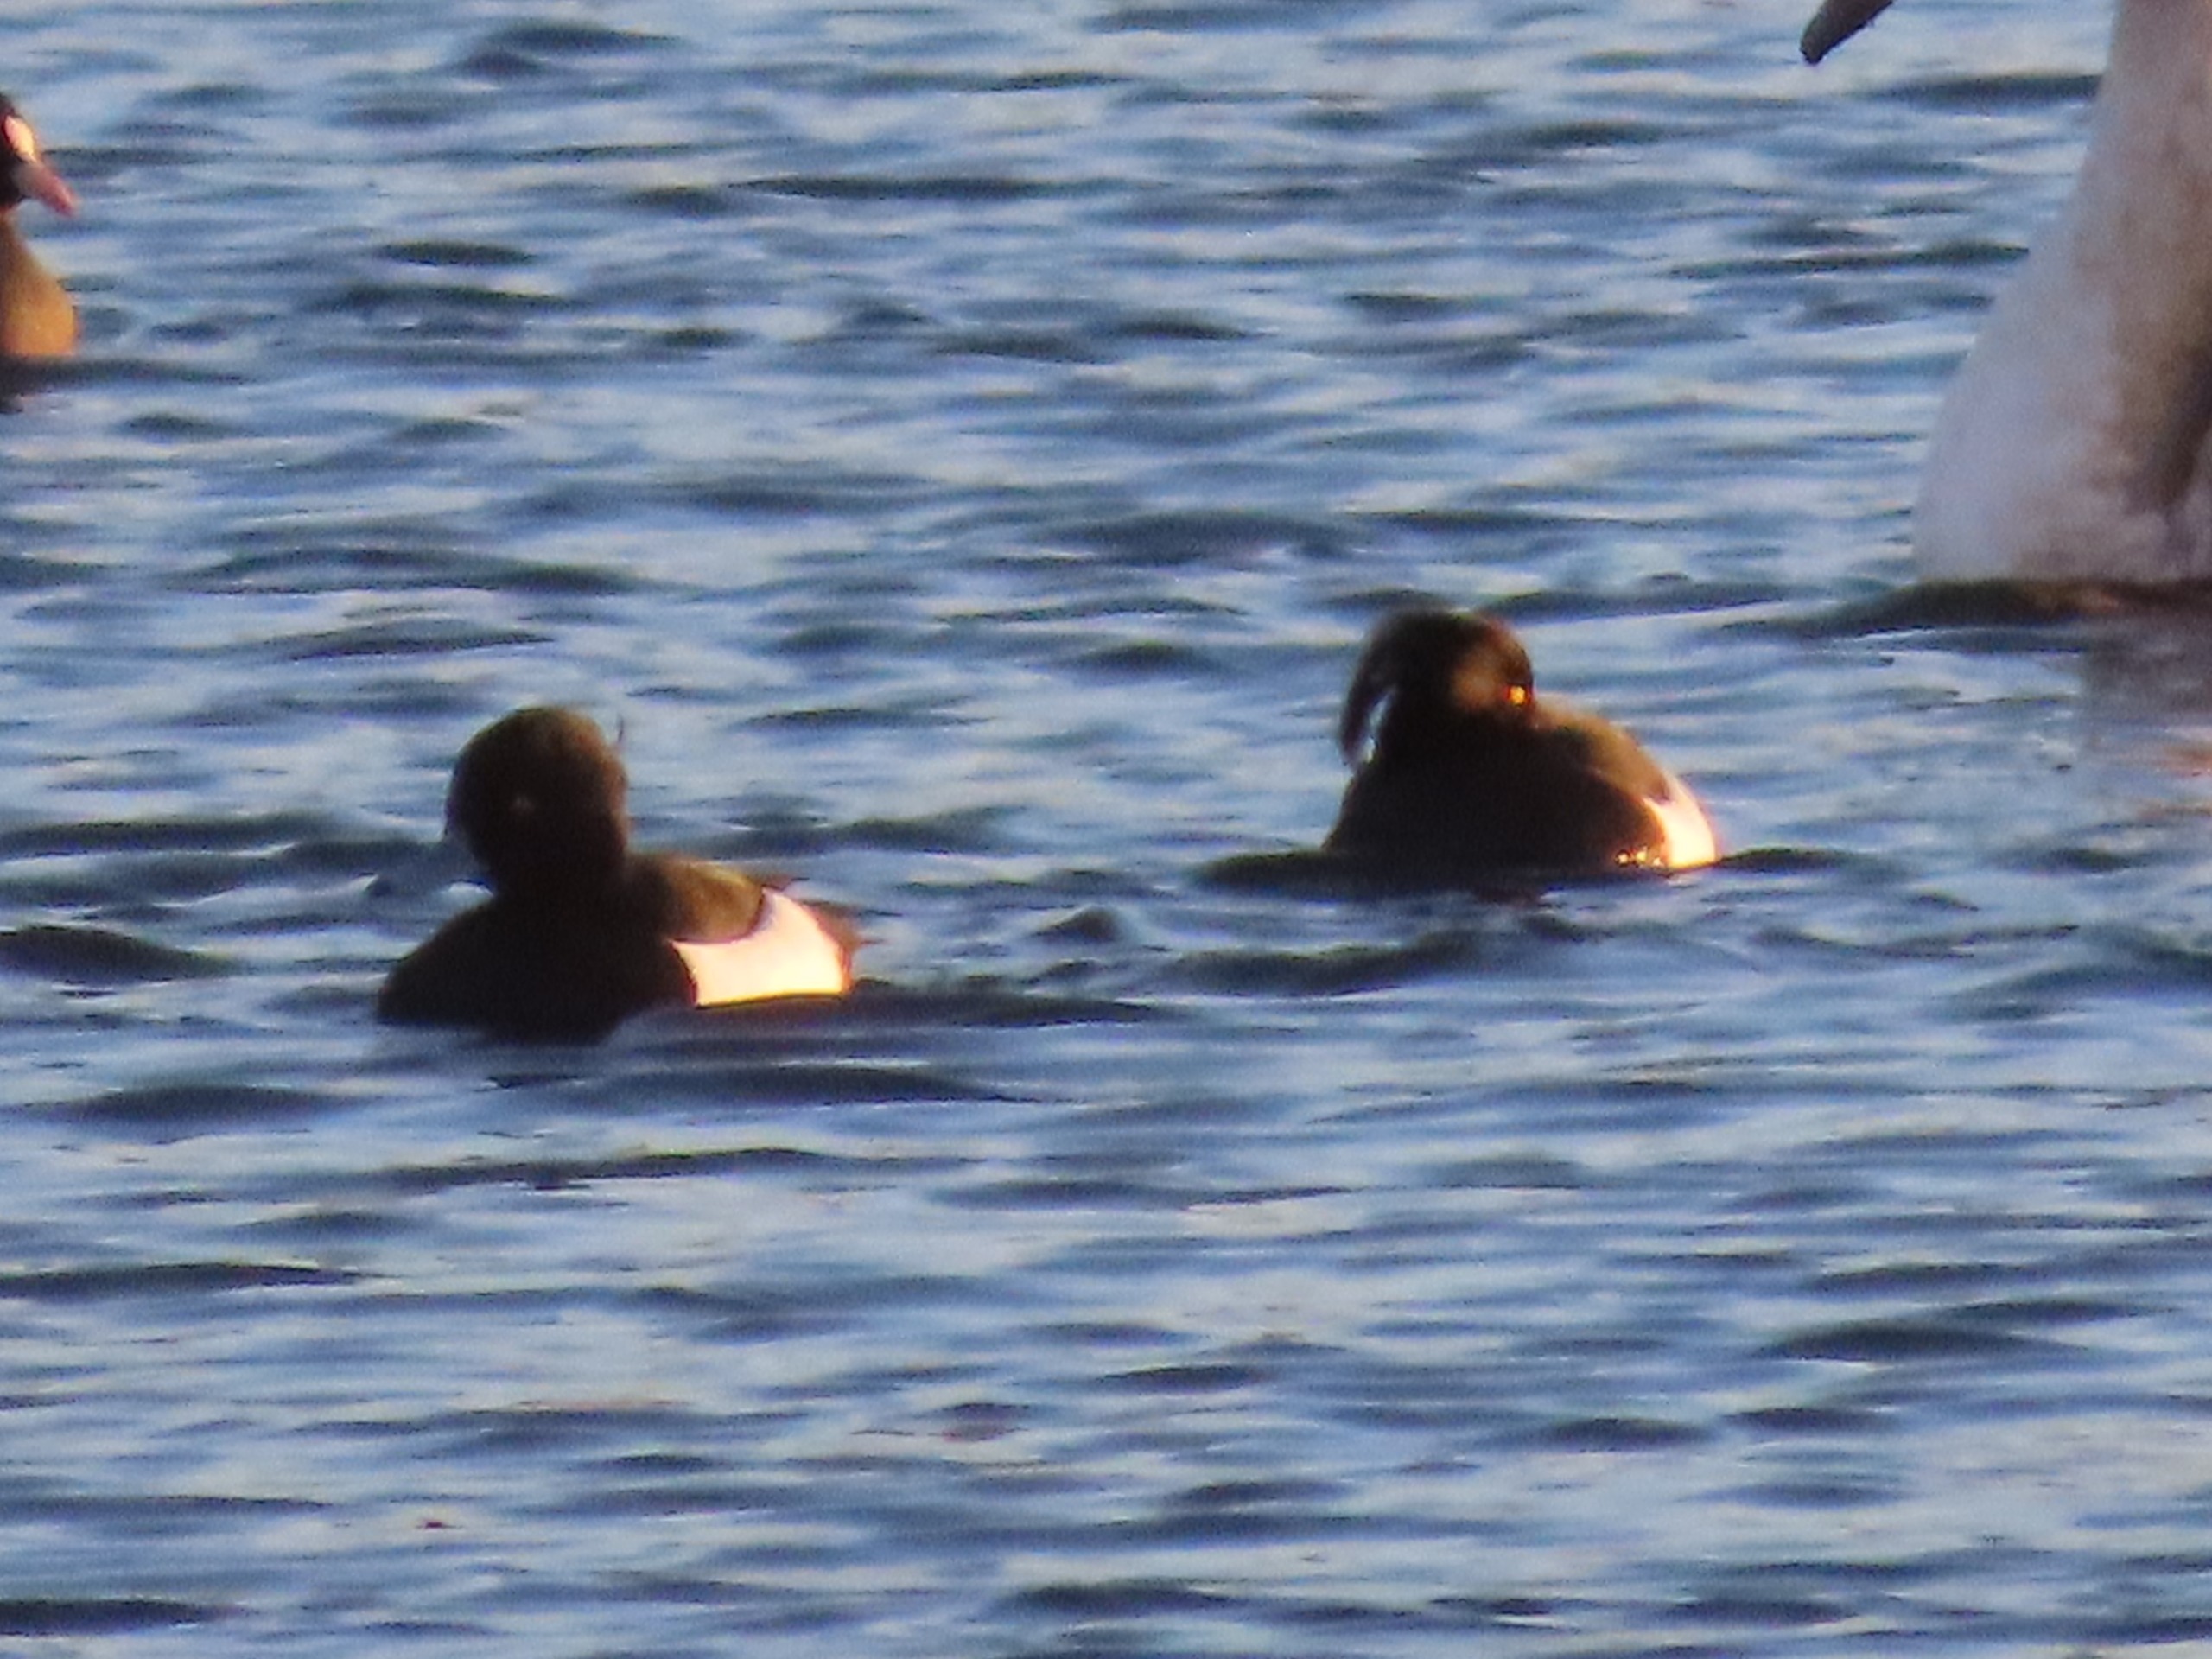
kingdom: Animalia
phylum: Chordata
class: Aves
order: Anseriformes
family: Anatidae
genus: Aythya
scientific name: Aythya fuligula
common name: Troldand
